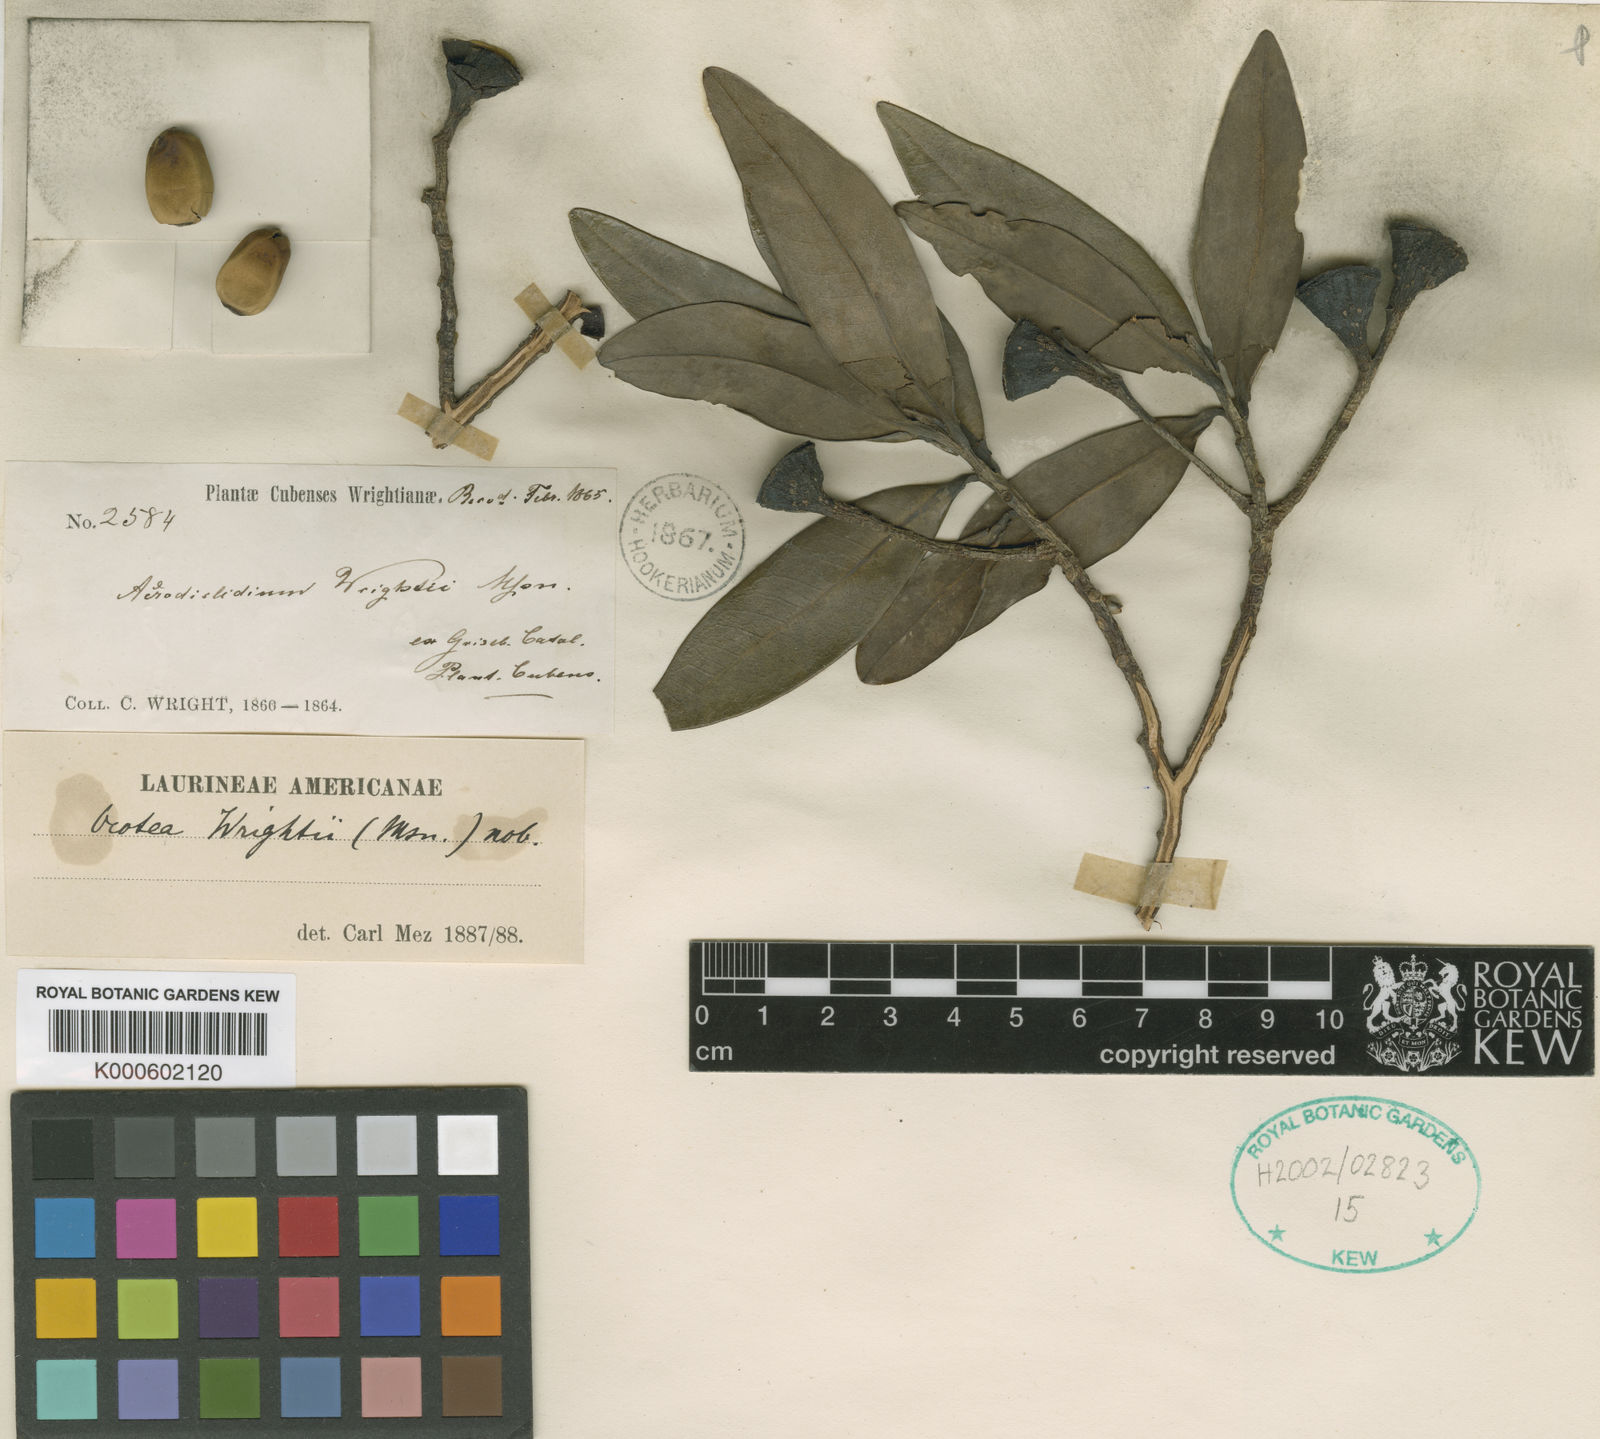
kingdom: Plantae
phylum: Tracheophyta
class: Magnoliopsida
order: Laurales
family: Lauraceae
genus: Ocotea
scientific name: Ocotea wrightii
